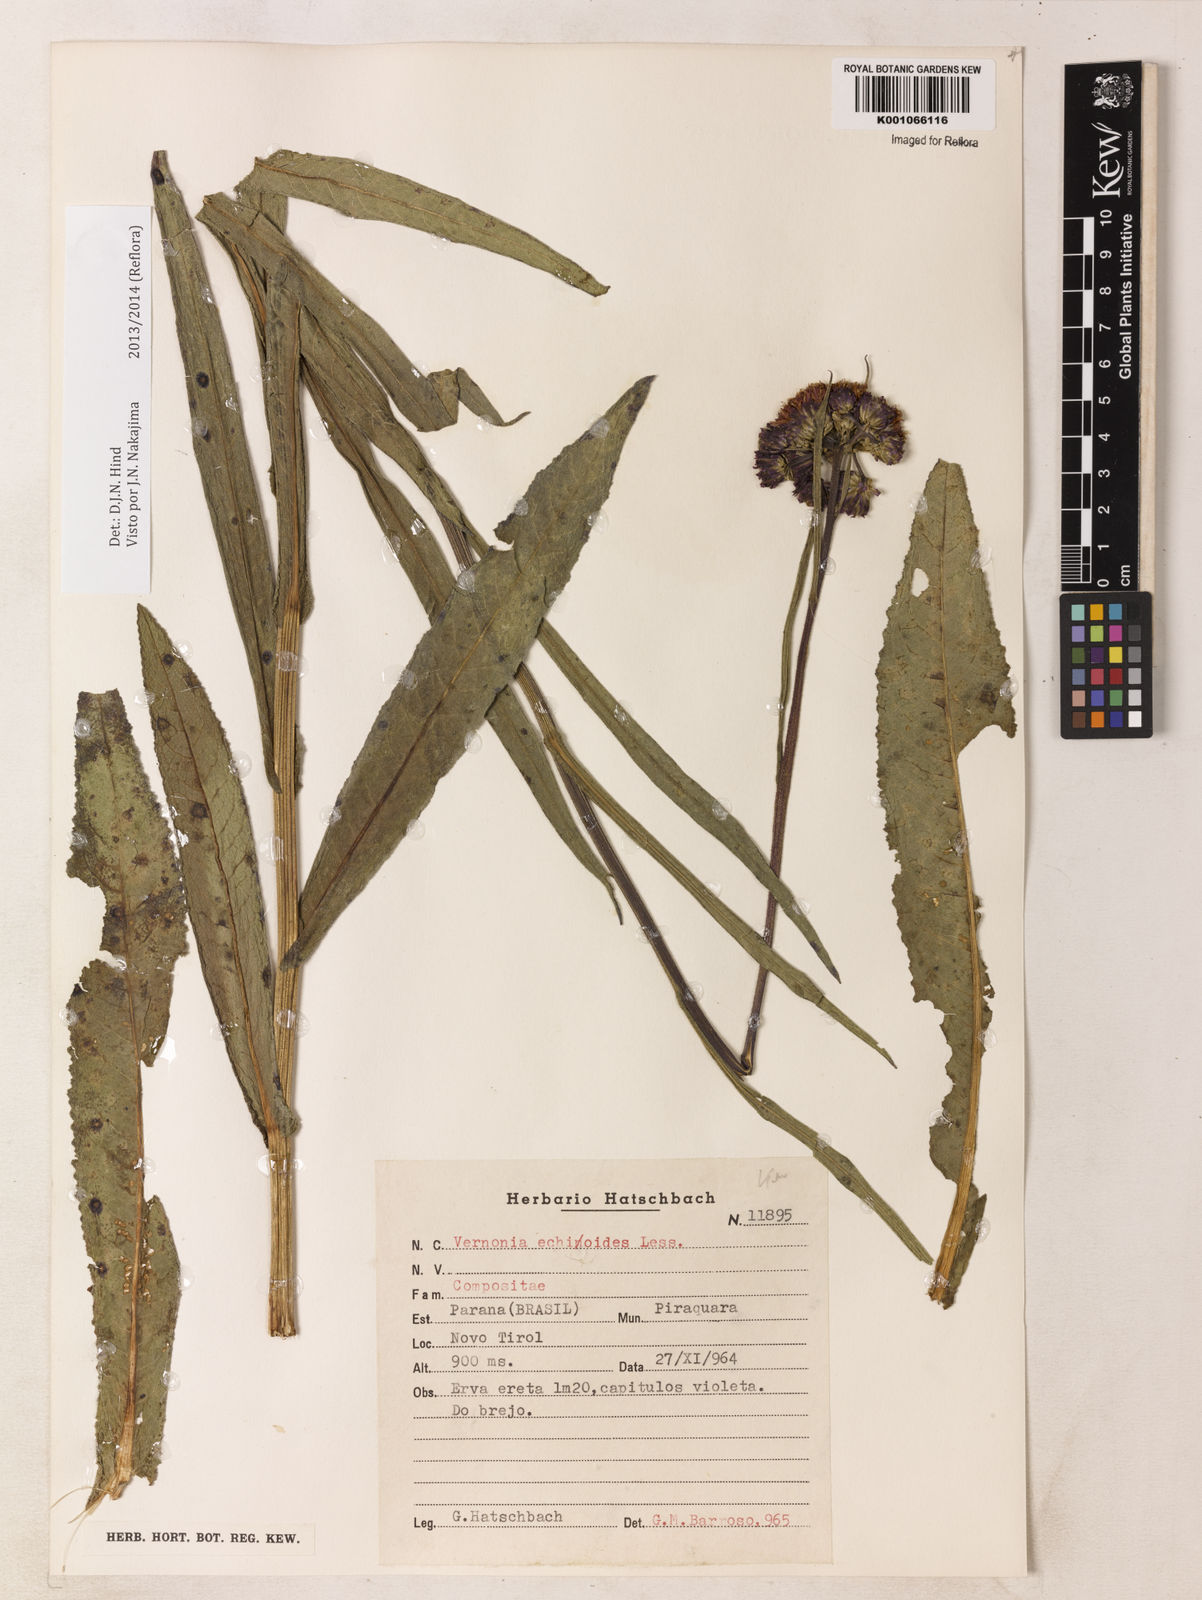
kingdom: Plantae
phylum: Tracheophyta
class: Magnoliopsida
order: Asterales
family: Asteraceae
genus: Vernonia
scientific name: Vernonia echioides
